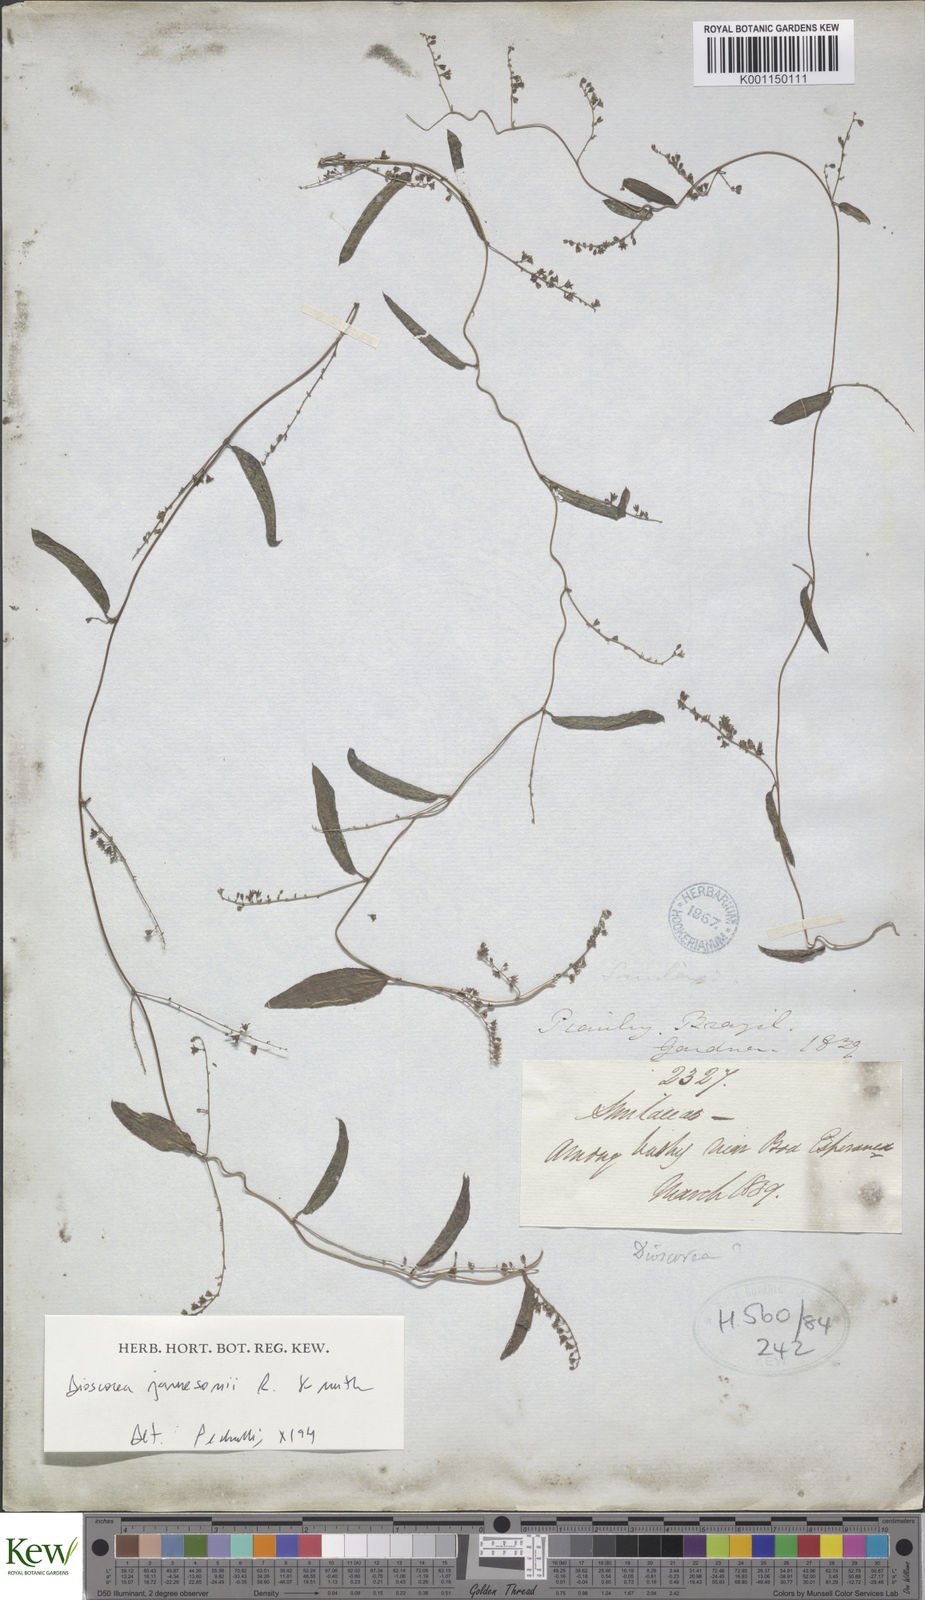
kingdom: Plantae
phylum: Tracheophyta
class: Liliopsida
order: Dioscoreales
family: Dioscoreaceae
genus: Dioscorea
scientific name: Dioscorea jamesonii
